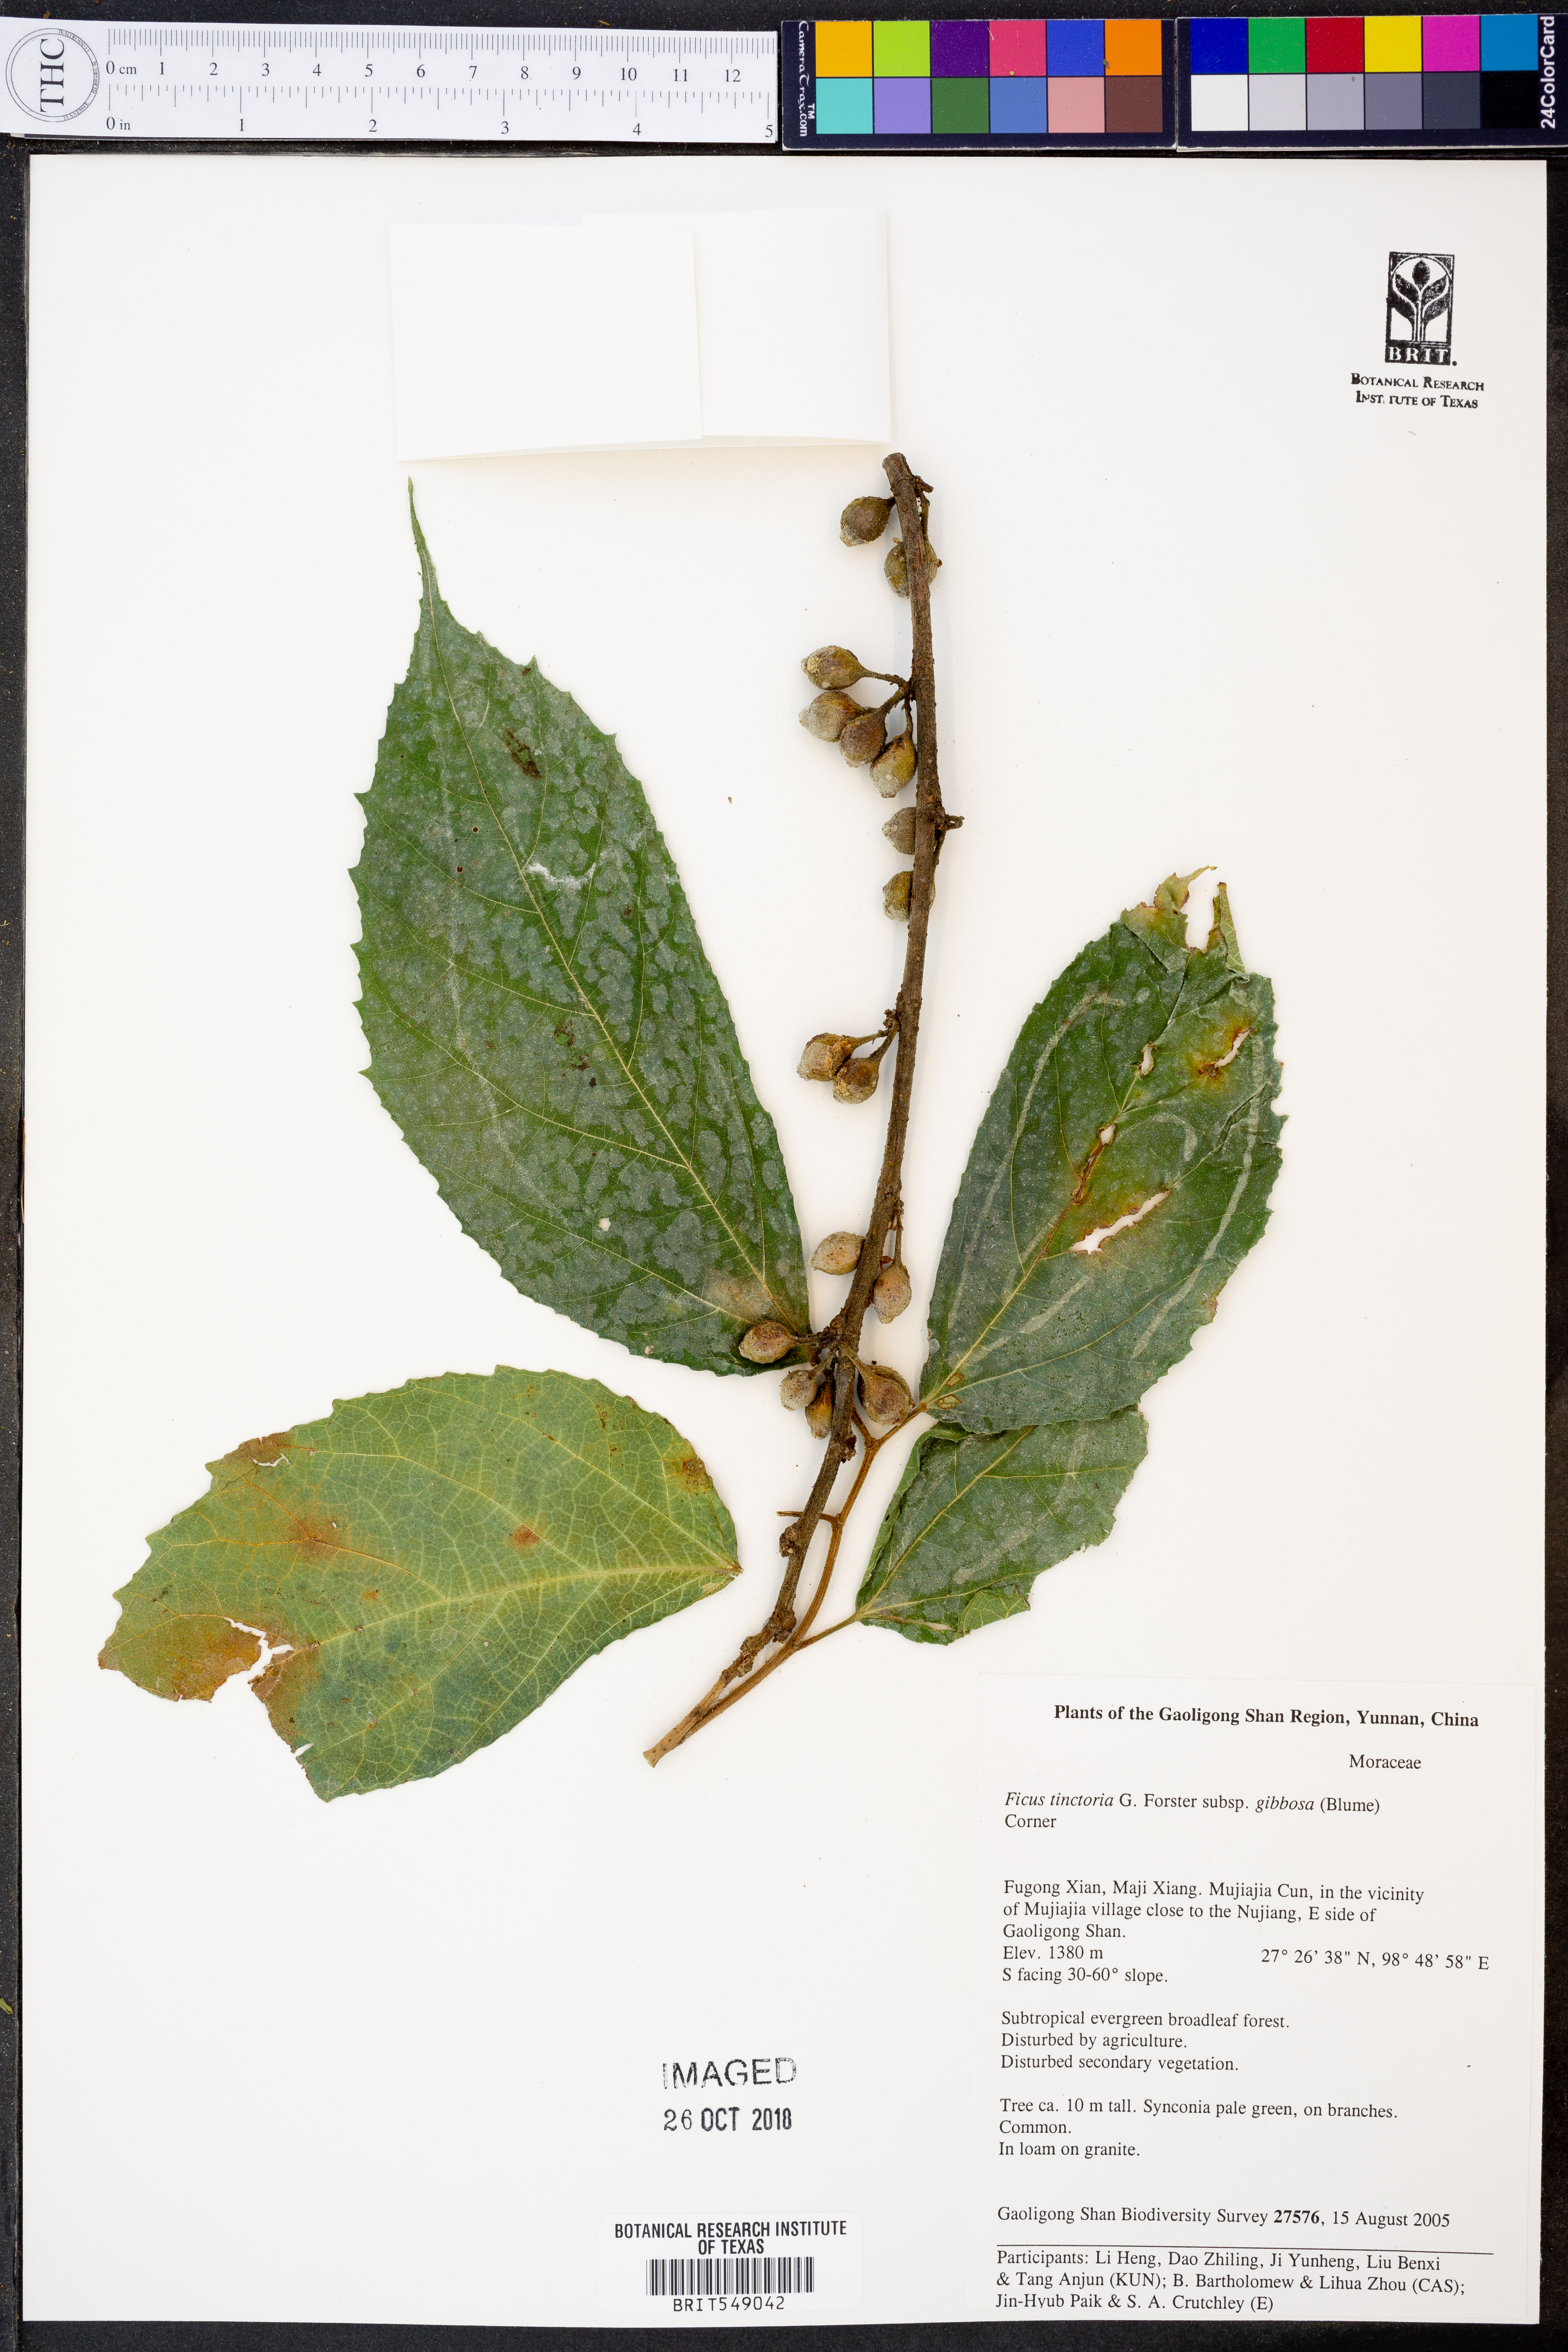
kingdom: Plantae
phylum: Tracheophyta
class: Magnoliopsida
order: Rosales
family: Moraceae
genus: Ficus
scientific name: Ficus tinctoria
